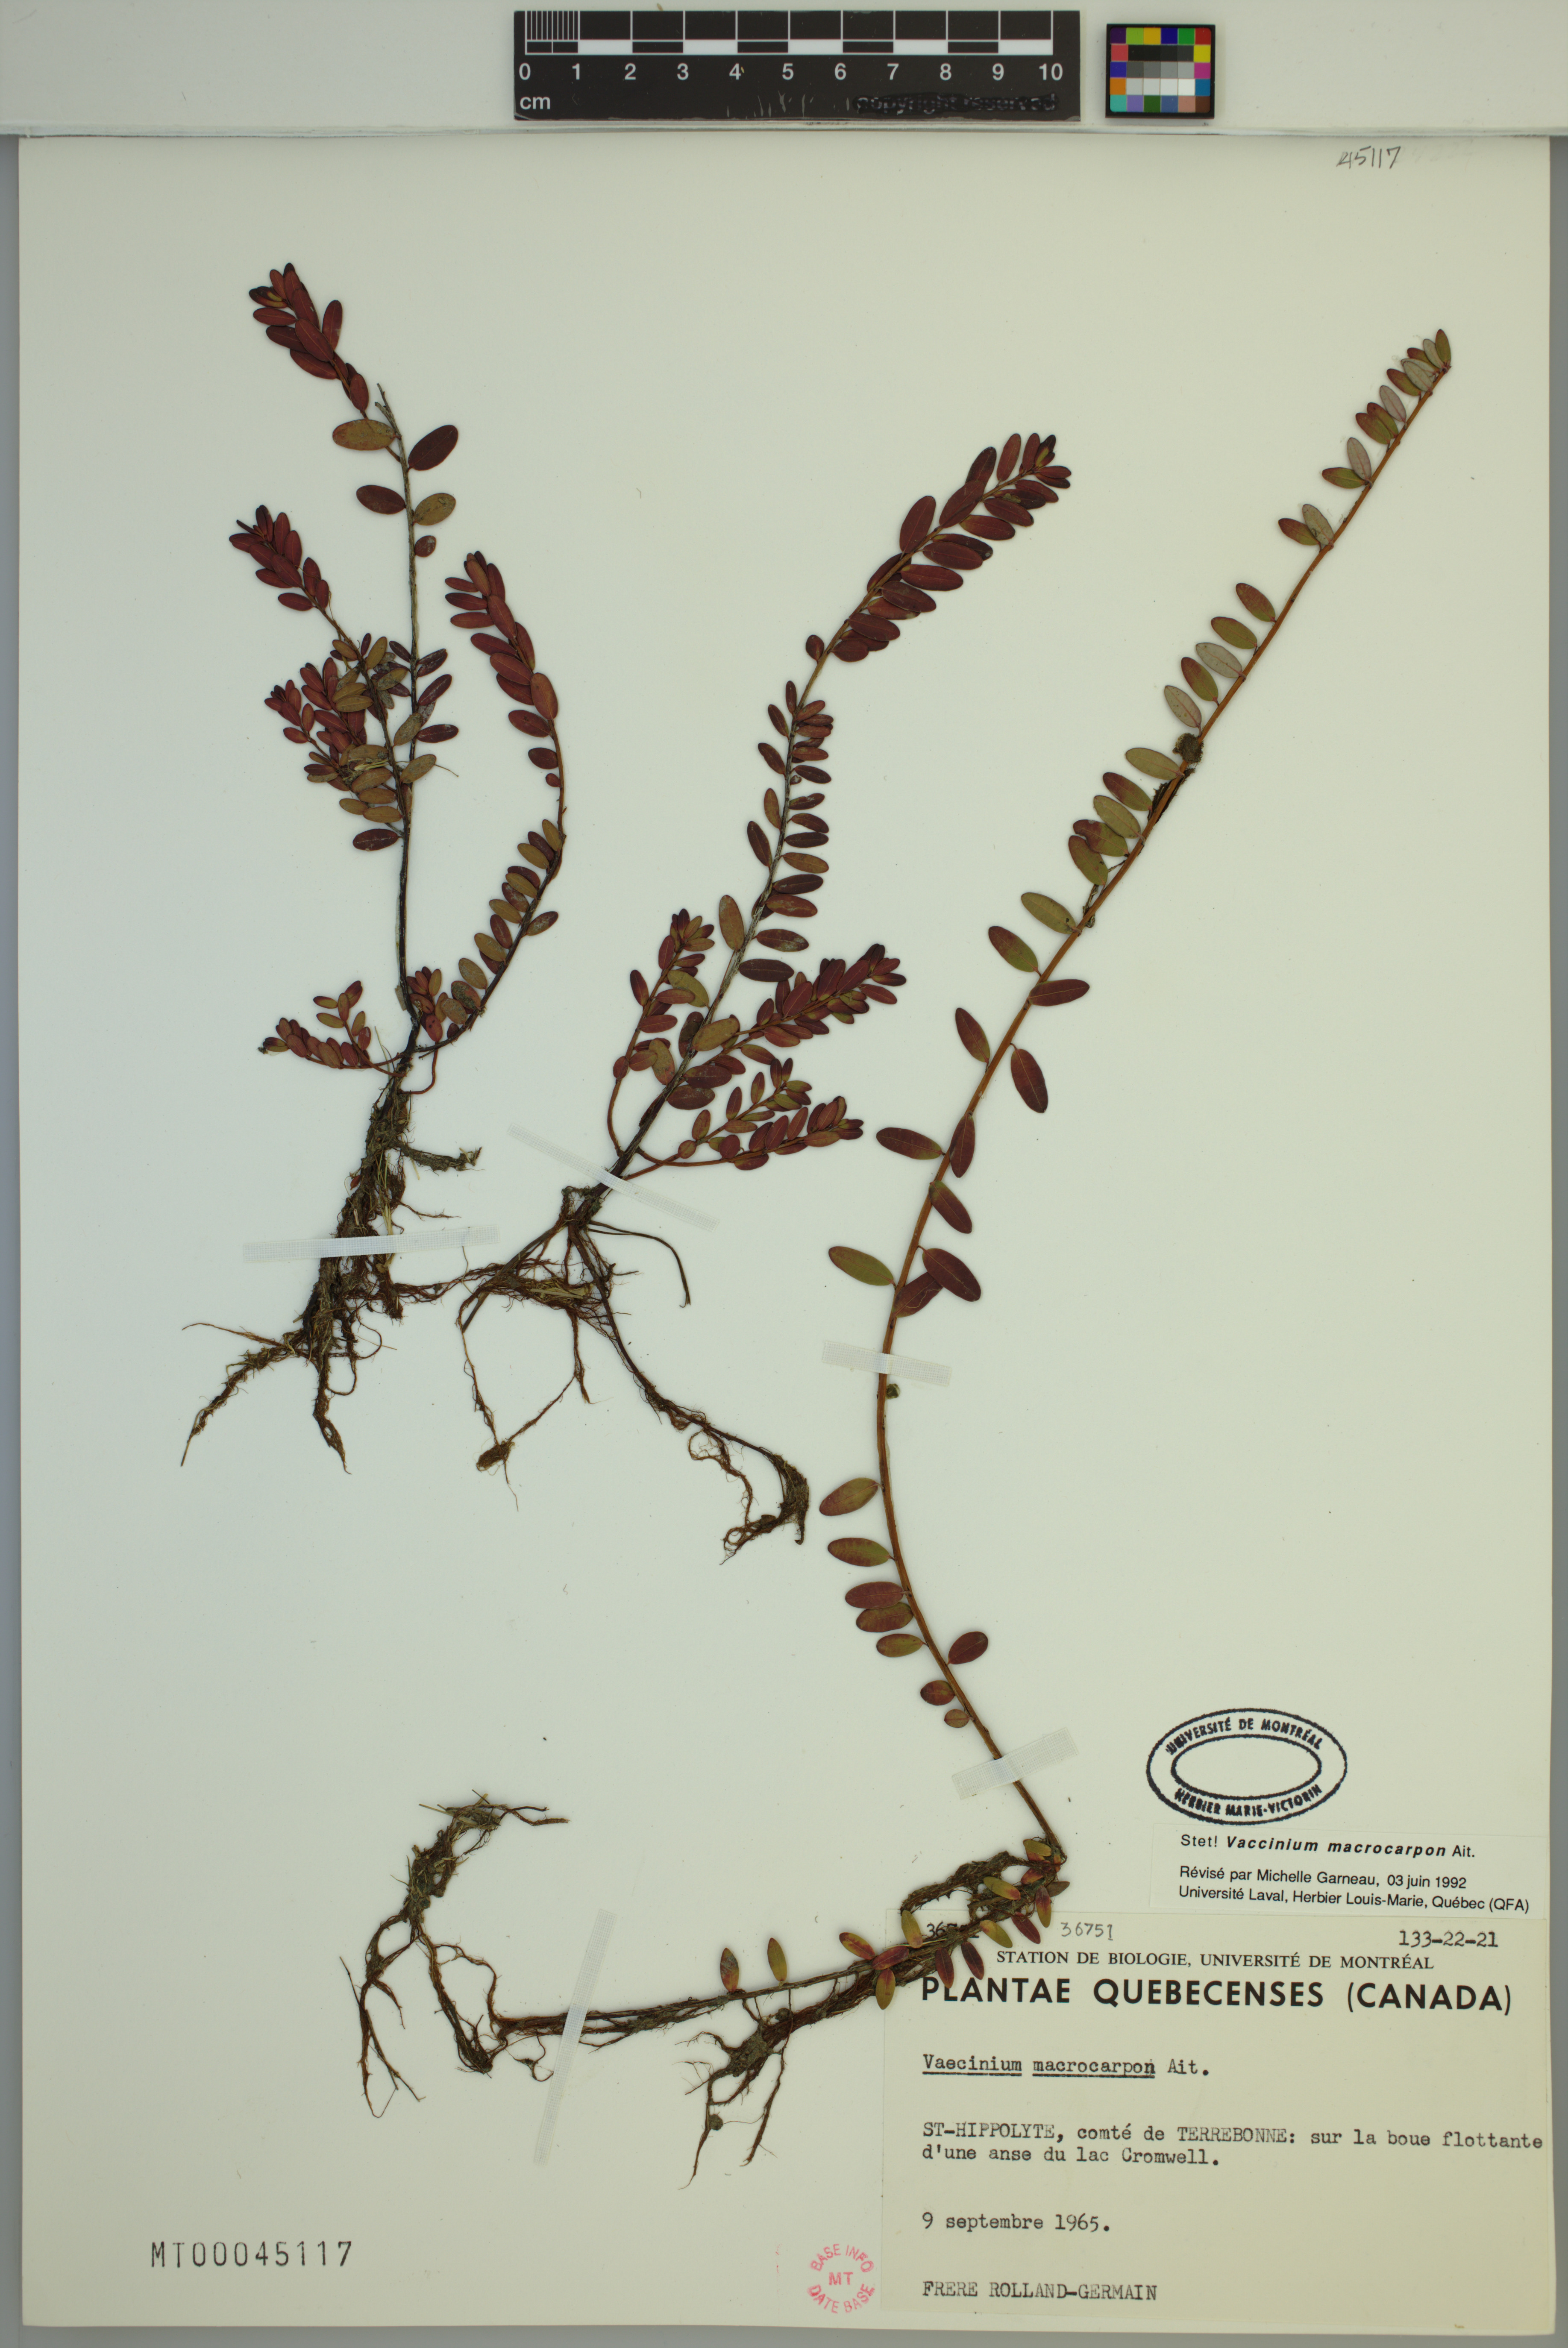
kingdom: Plantae
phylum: Tracheophyta
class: Magnoliopsida
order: Ericales
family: Ericaceae
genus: Vaccinium
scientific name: Vaccinium macrocarpon
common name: American cranberry
